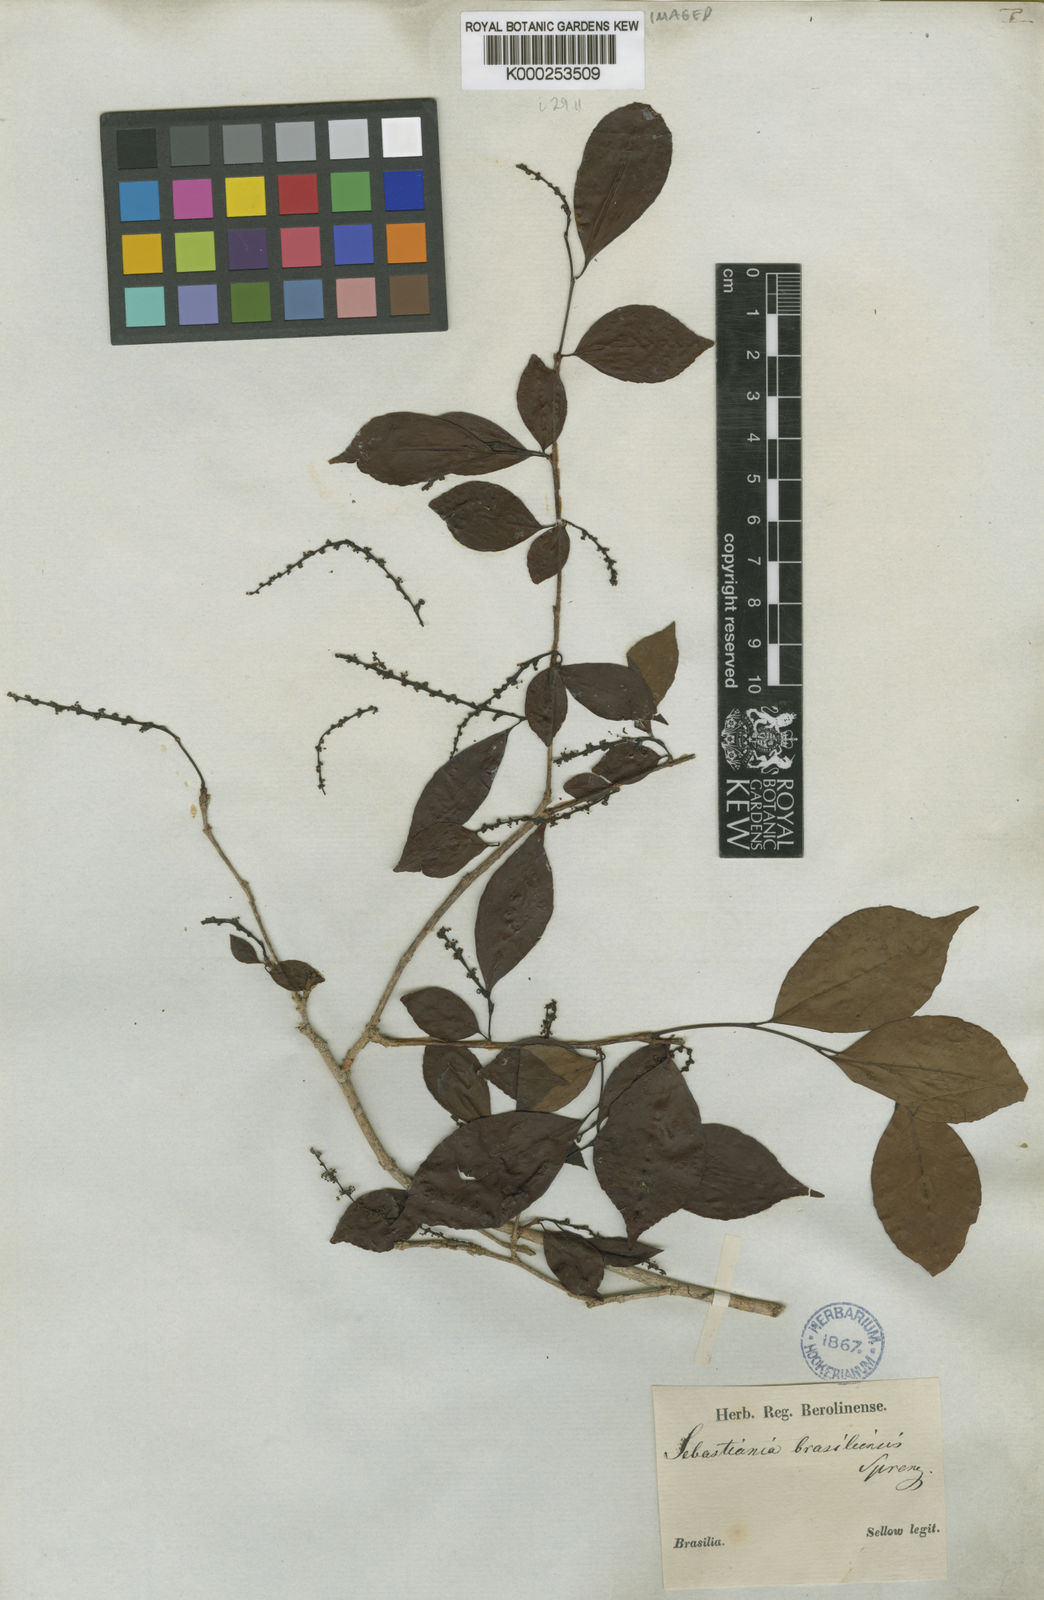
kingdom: Plantae
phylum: Tracheophyta
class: Magnoliopsida
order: Malpighiales
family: Euphorbiaceae
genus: Sebastiania
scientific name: Sebastiania brasiliensis
